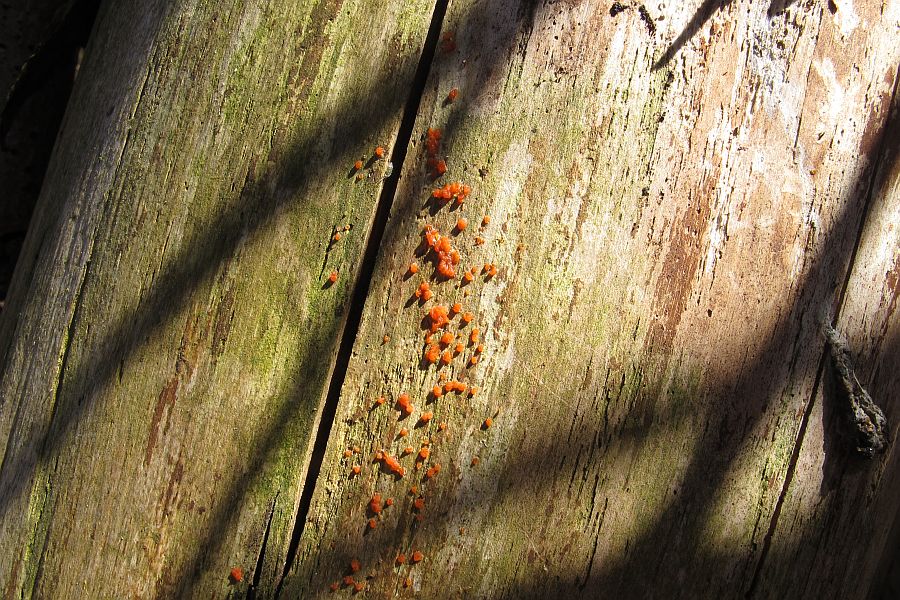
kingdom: Fungi
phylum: Basidiomycota
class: Dacrymycetes
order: Dacrymycetales
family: Dacrymycetaceae
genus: Dacrymyces
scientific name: Dacrymyces stillatus
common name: almindelig tåresvamp
